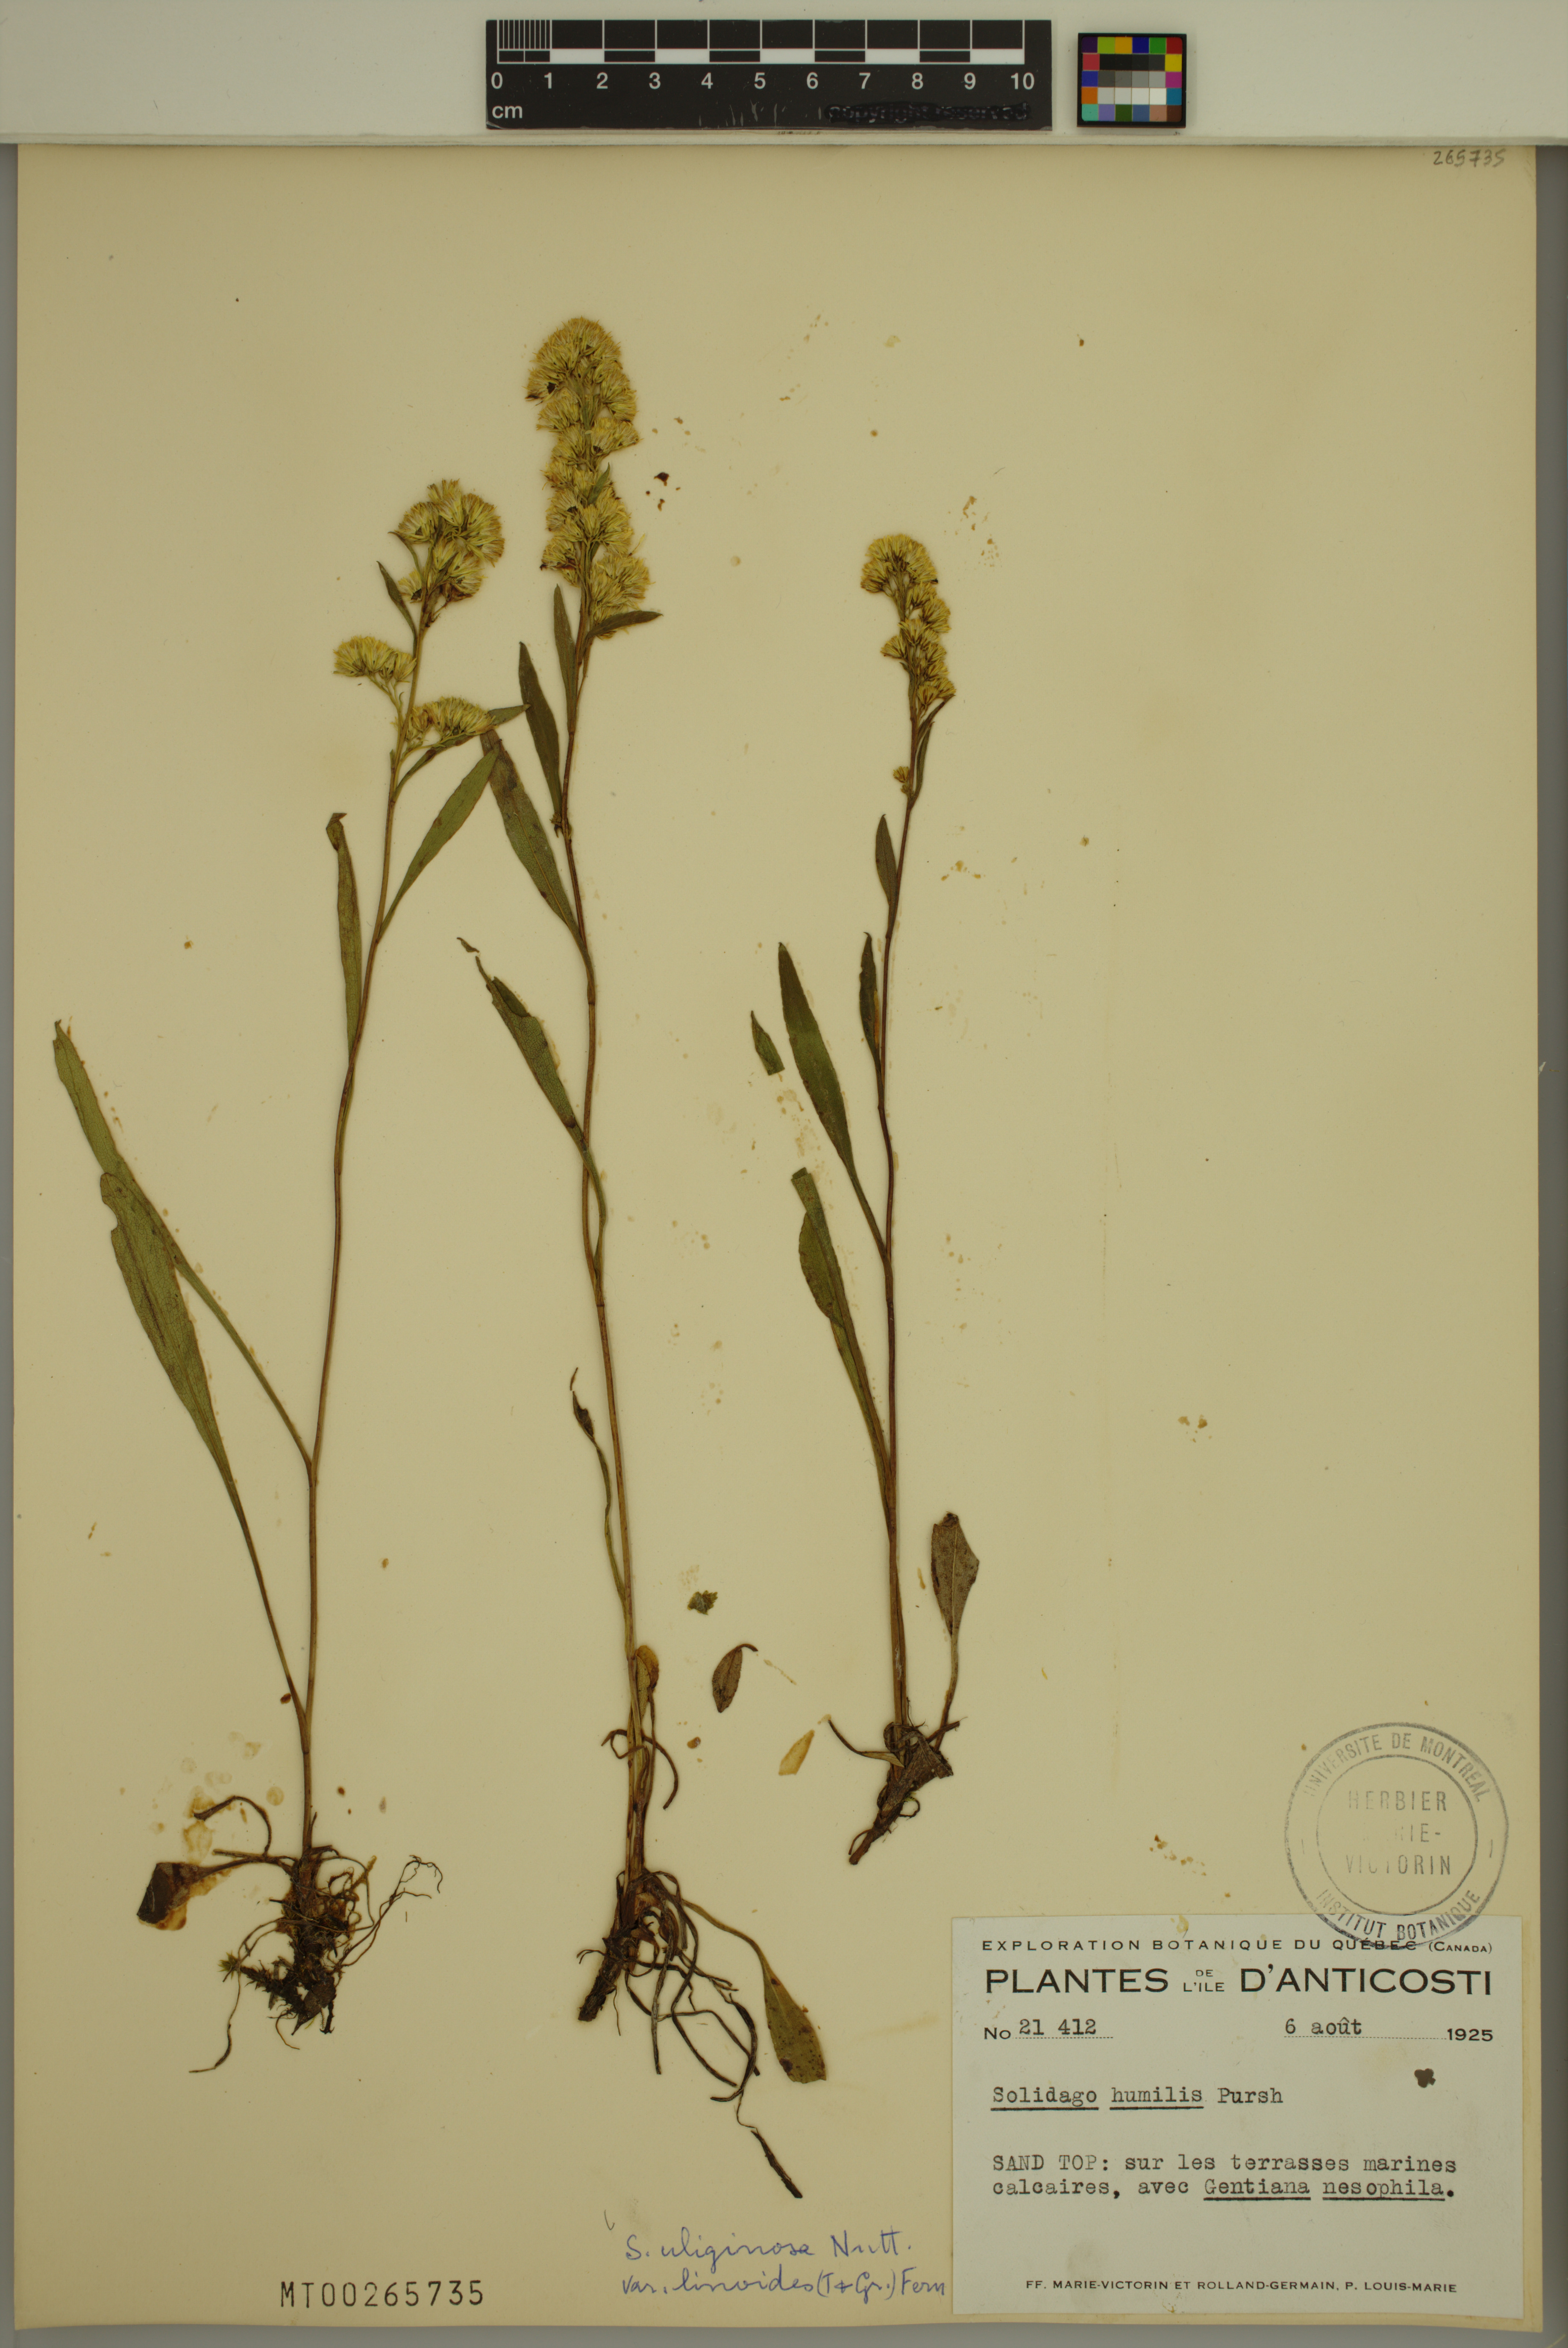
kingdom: Plantae
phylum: Tracheophyta
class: Magnoliopsida
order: Asterales
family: Asteraceae
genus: Solidago
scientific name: Solidago uliginosa
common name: Bog goldenrod
